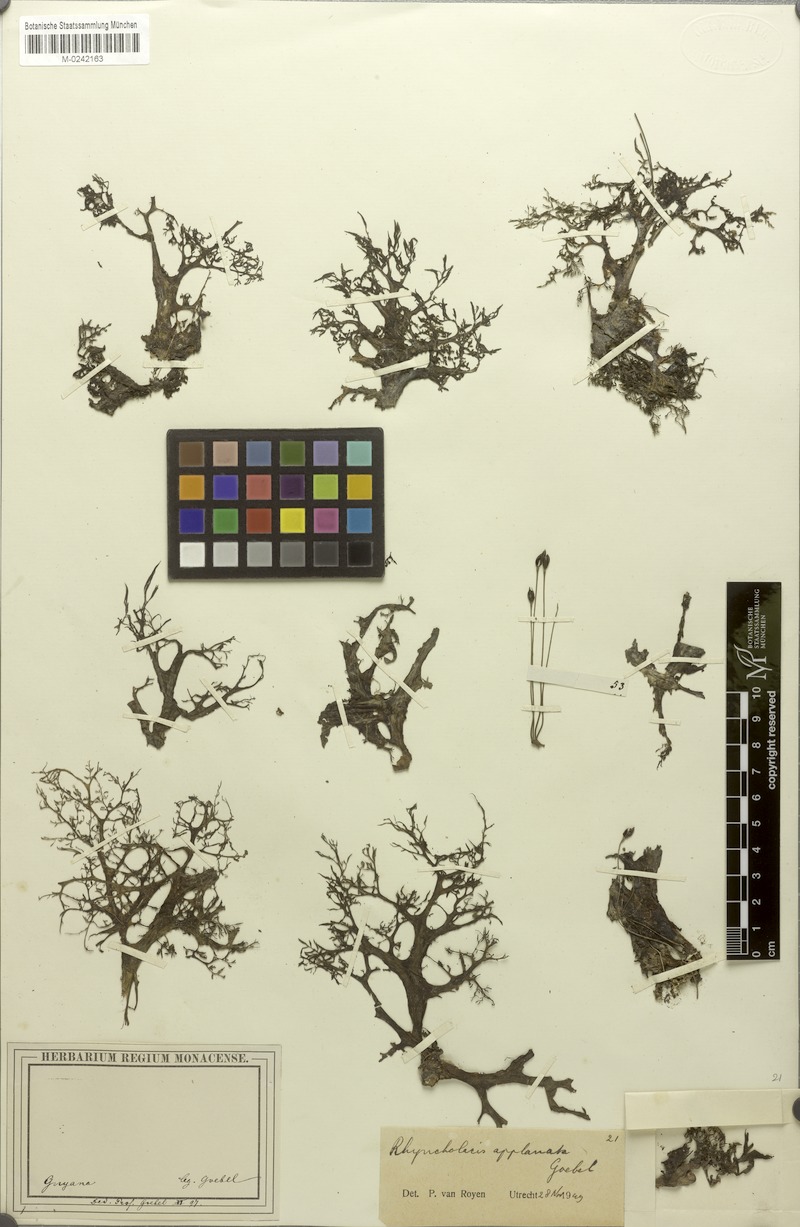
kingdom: Plantae
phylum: Tracheophyta
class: Magnoliopsida
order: Malpighiales
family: Podostemaceae
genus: Rhyncholacis
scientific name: Rhyncholacis applanata
